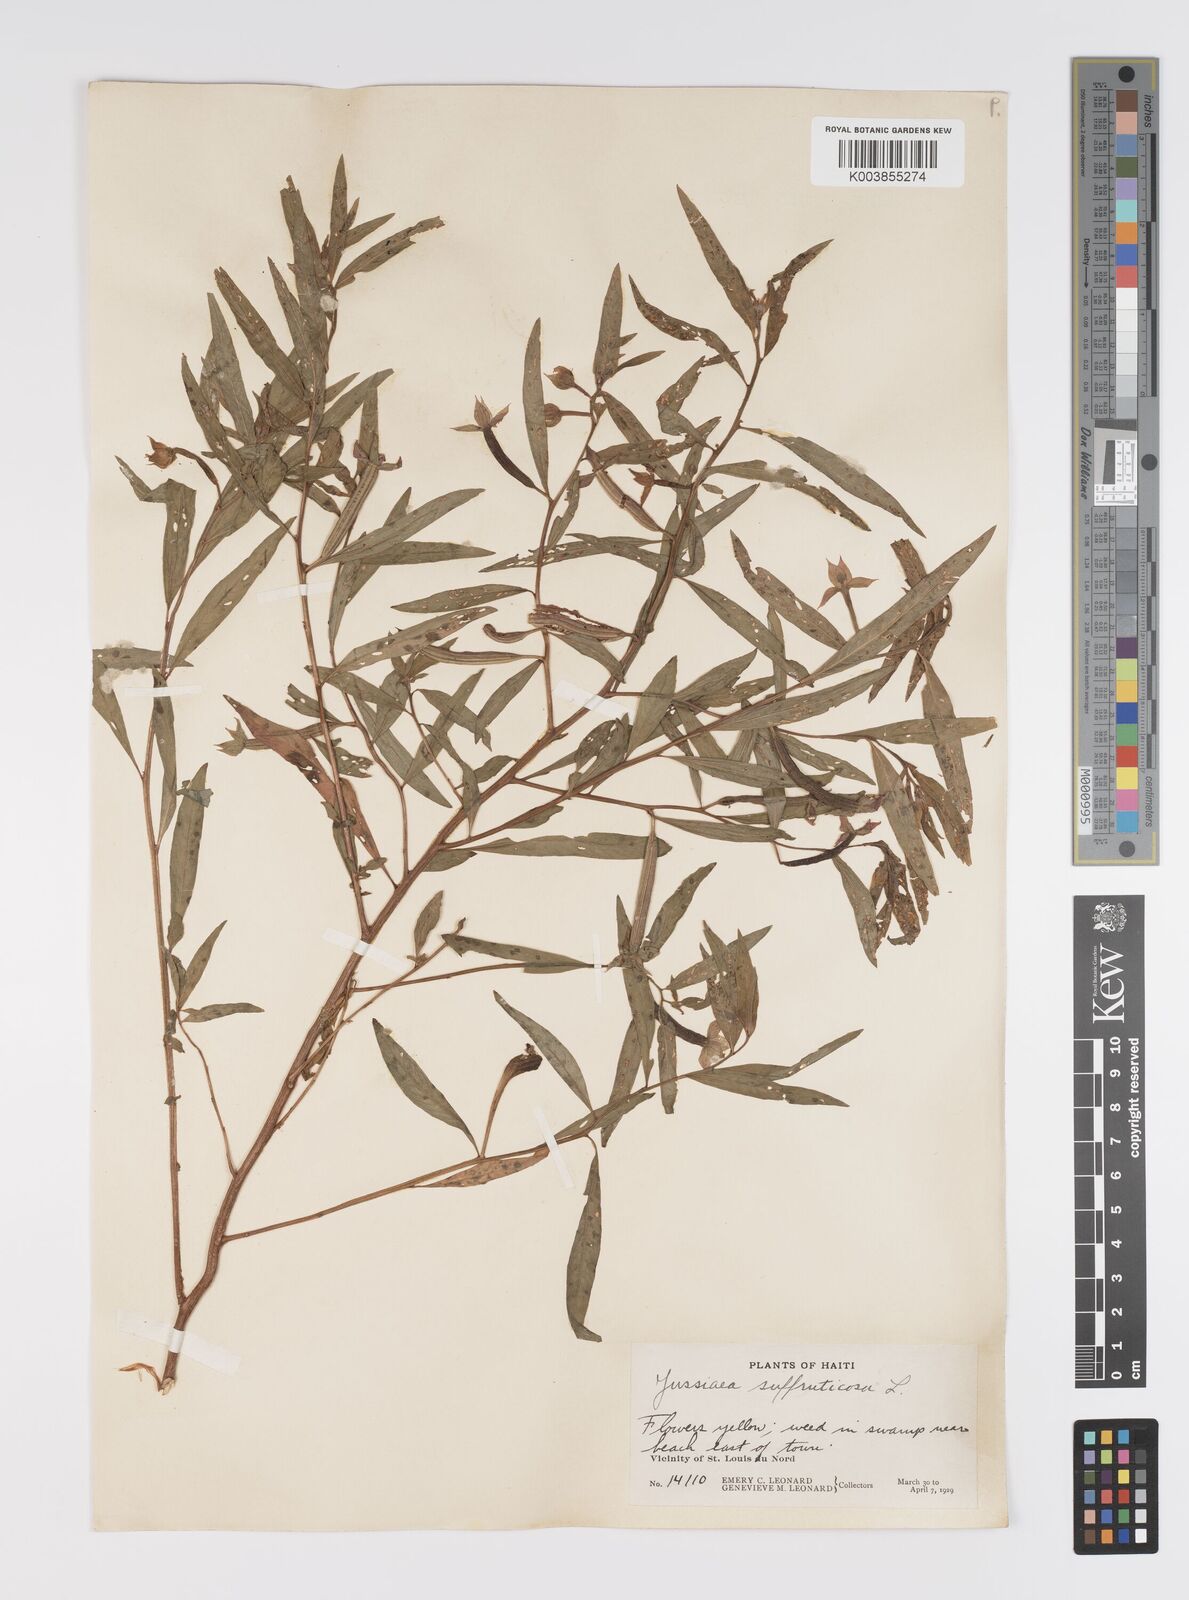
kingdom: Plantae
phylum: Tracheophyta
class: Magnoliopsida
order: Myrtales
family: Onagraceae
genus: Ludwigia
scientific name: Ludwigia octovalvis
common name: Water-primrose
